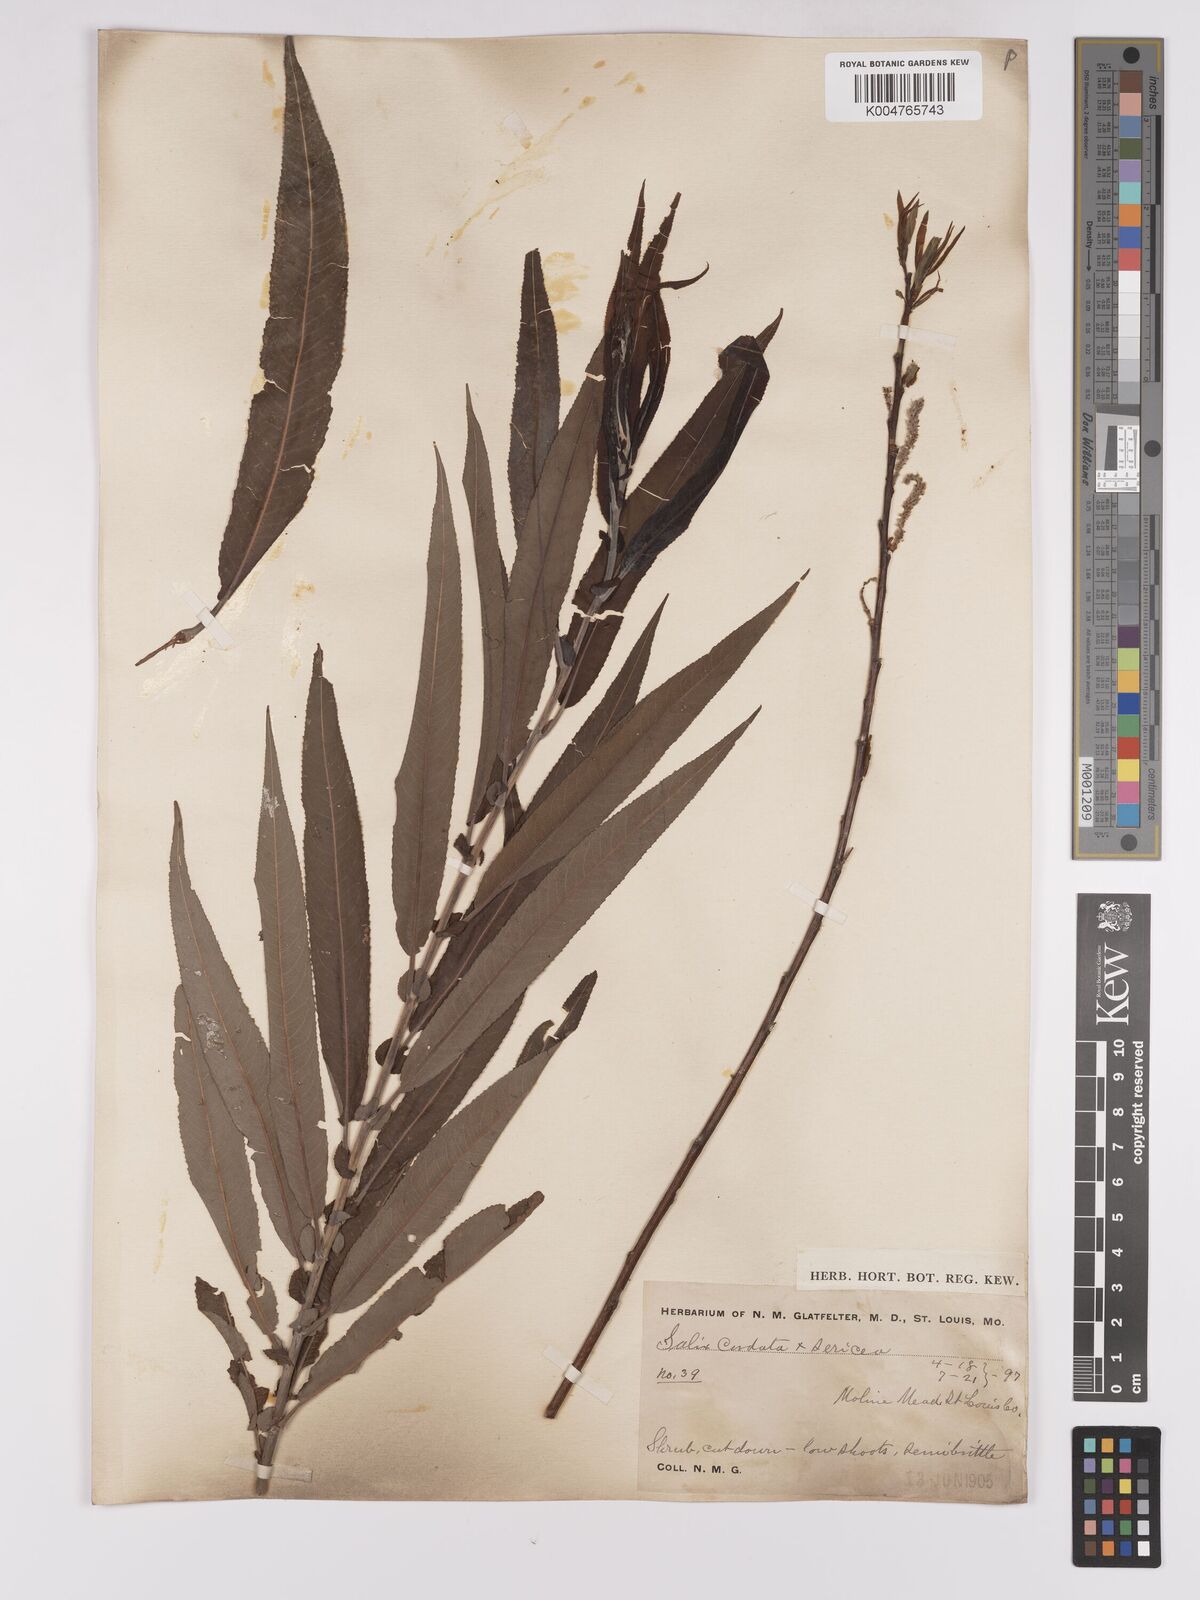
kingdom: Plantae
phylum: Tracheophyta
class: Magnoliopsida
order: Malpighiales
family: Salicaceae
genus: Salix
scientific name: Salix cordata
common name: Heart-leaf willow
